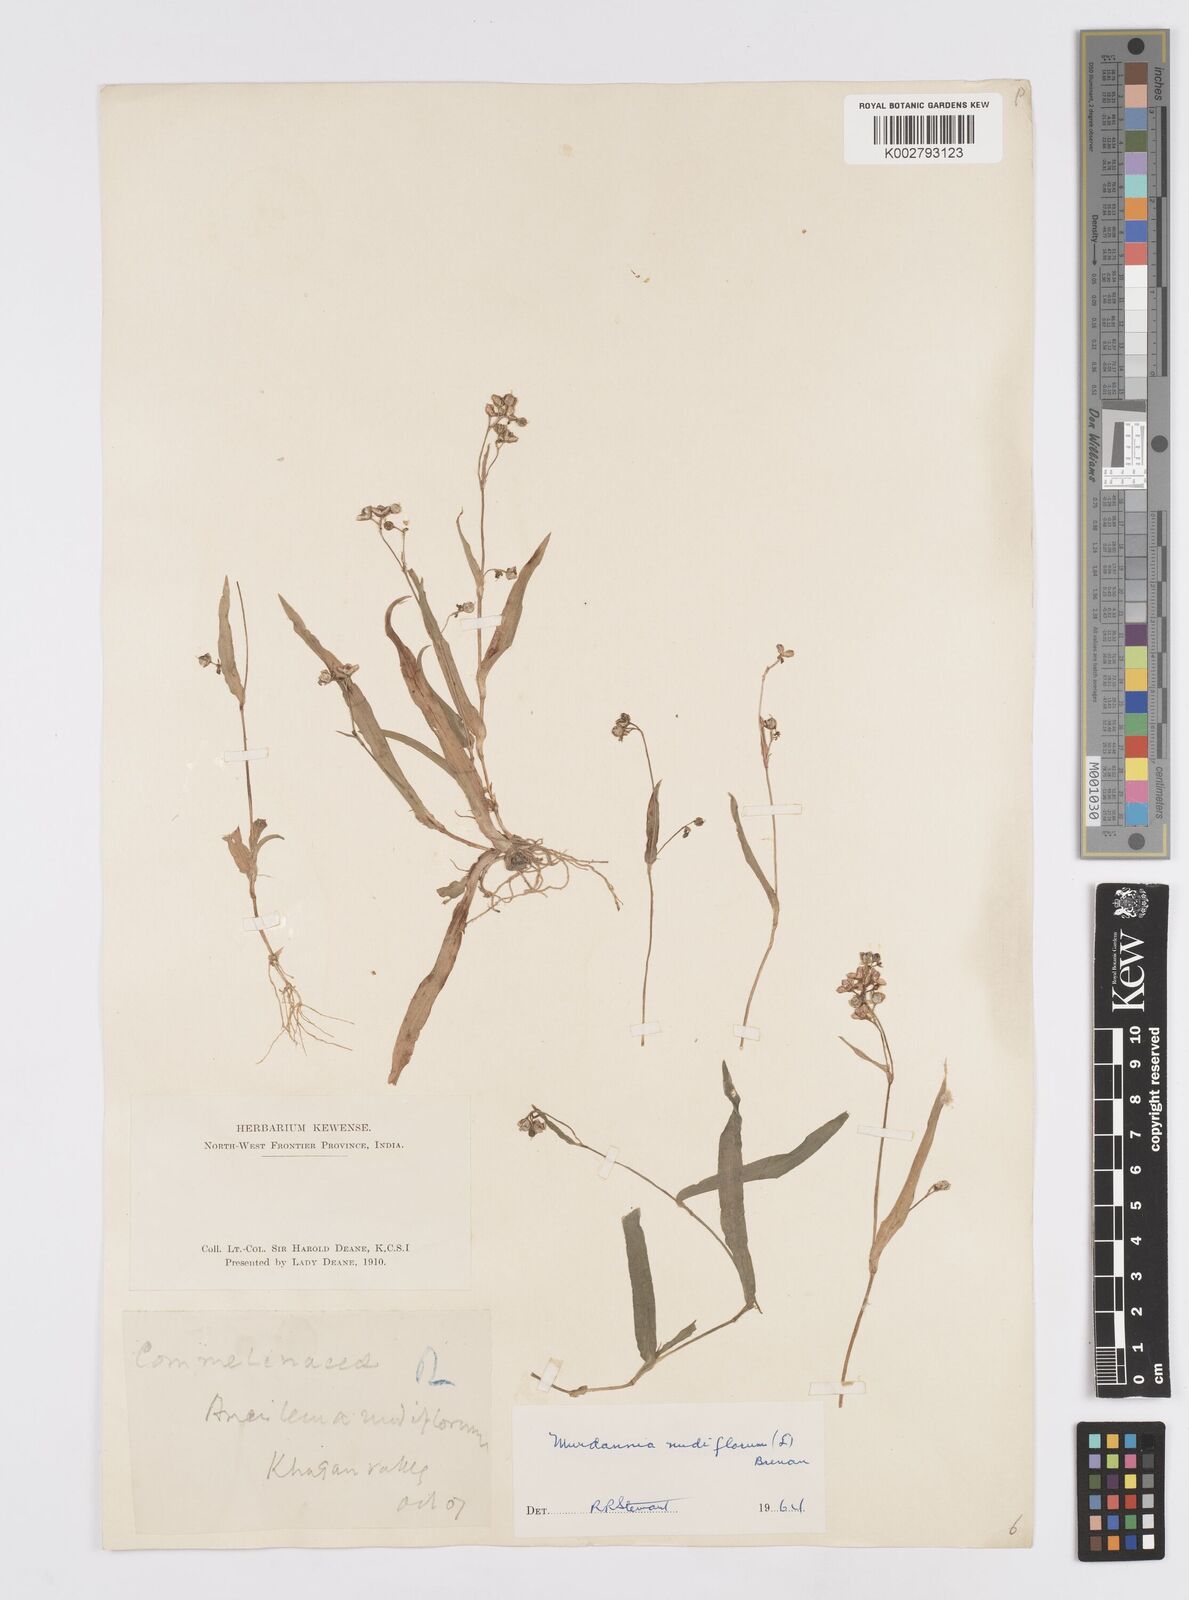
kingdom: Plantae
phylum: Tracheophyta
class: Liliopsida
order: Commelinales
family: Commelinaceae
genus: Murdannia
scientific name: Murdannia nudiflora
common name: Nakedstem dewflower
